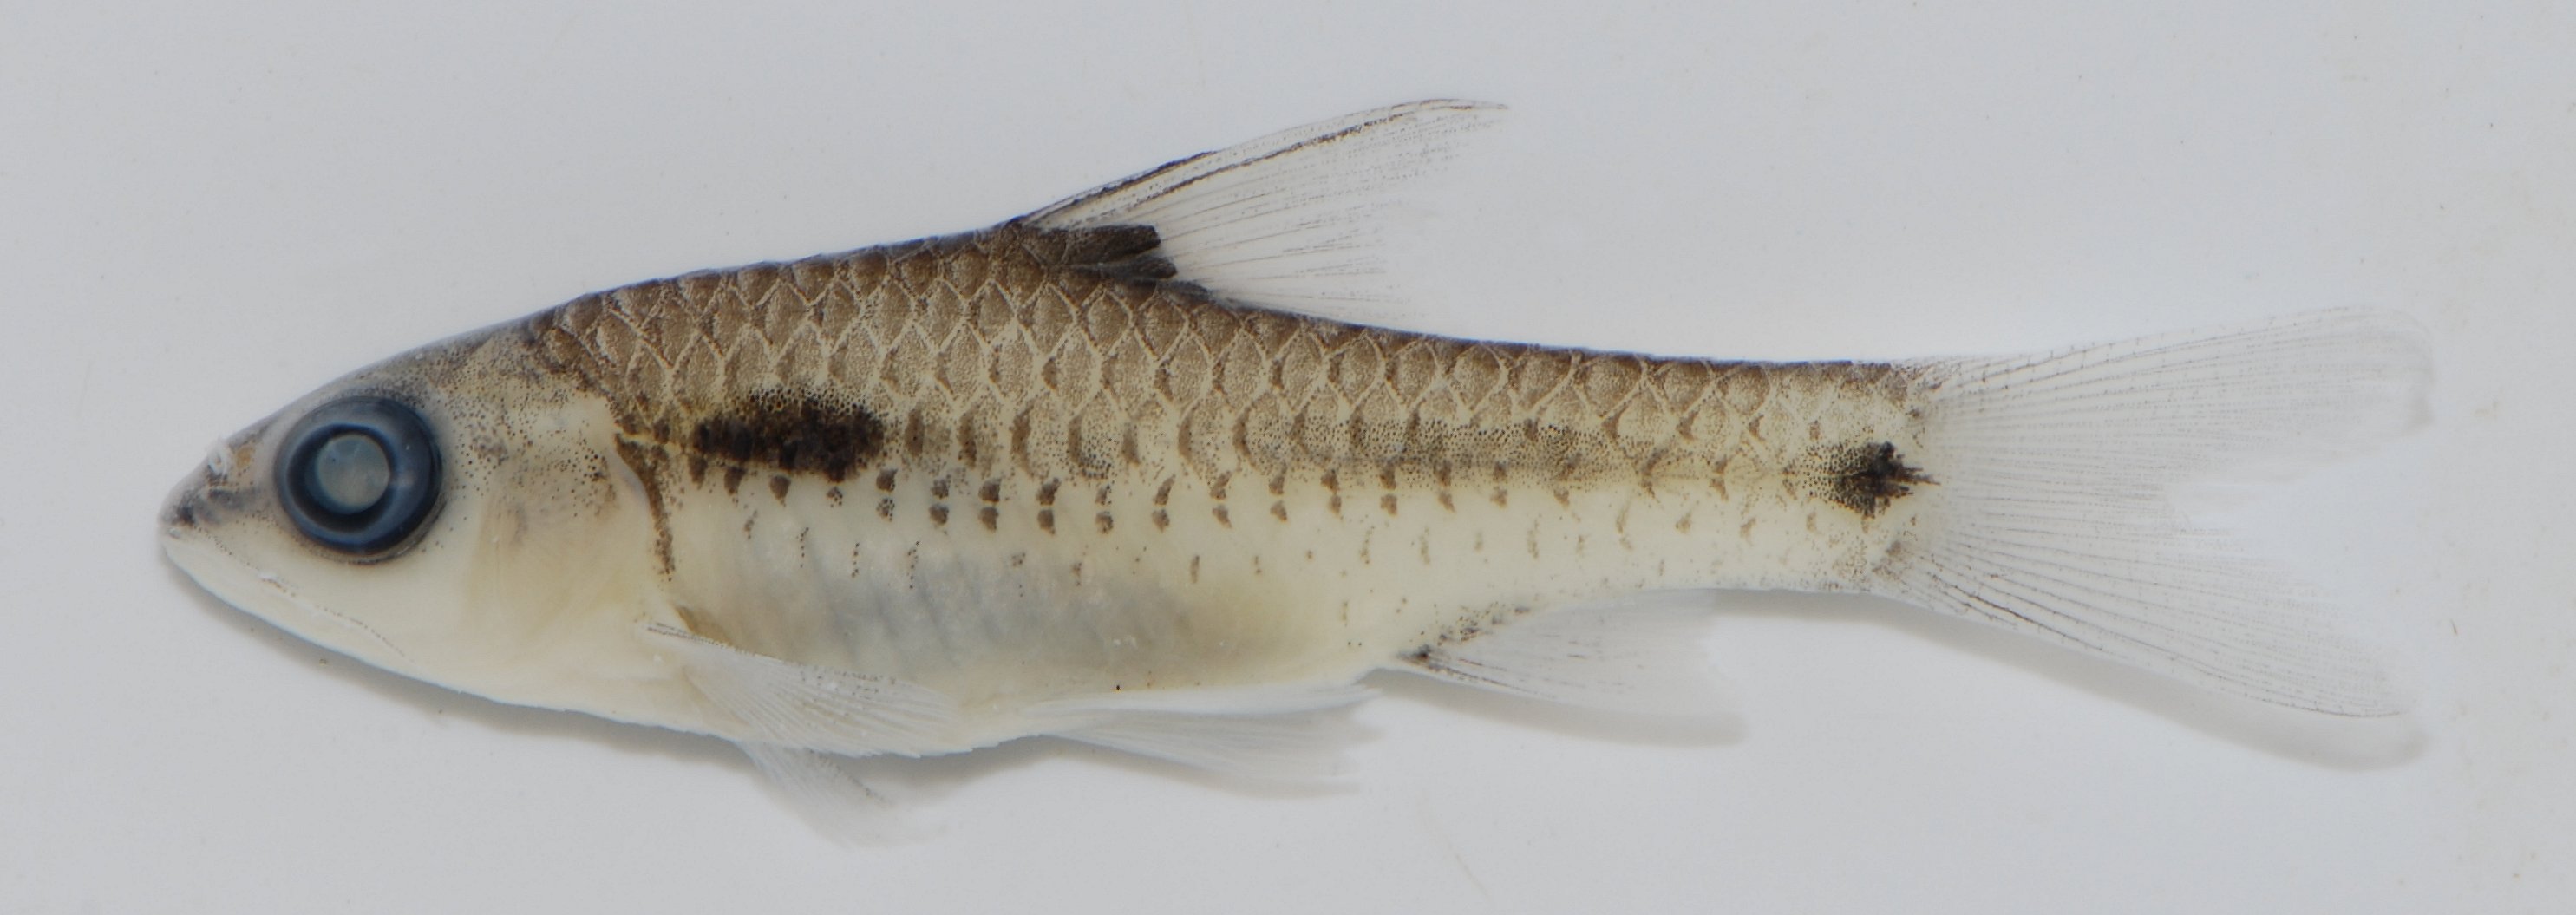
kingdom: Animalia
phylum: Chordata
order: Cypriniformes
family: Cyprinidae
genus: Barbus
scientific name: Barbus
